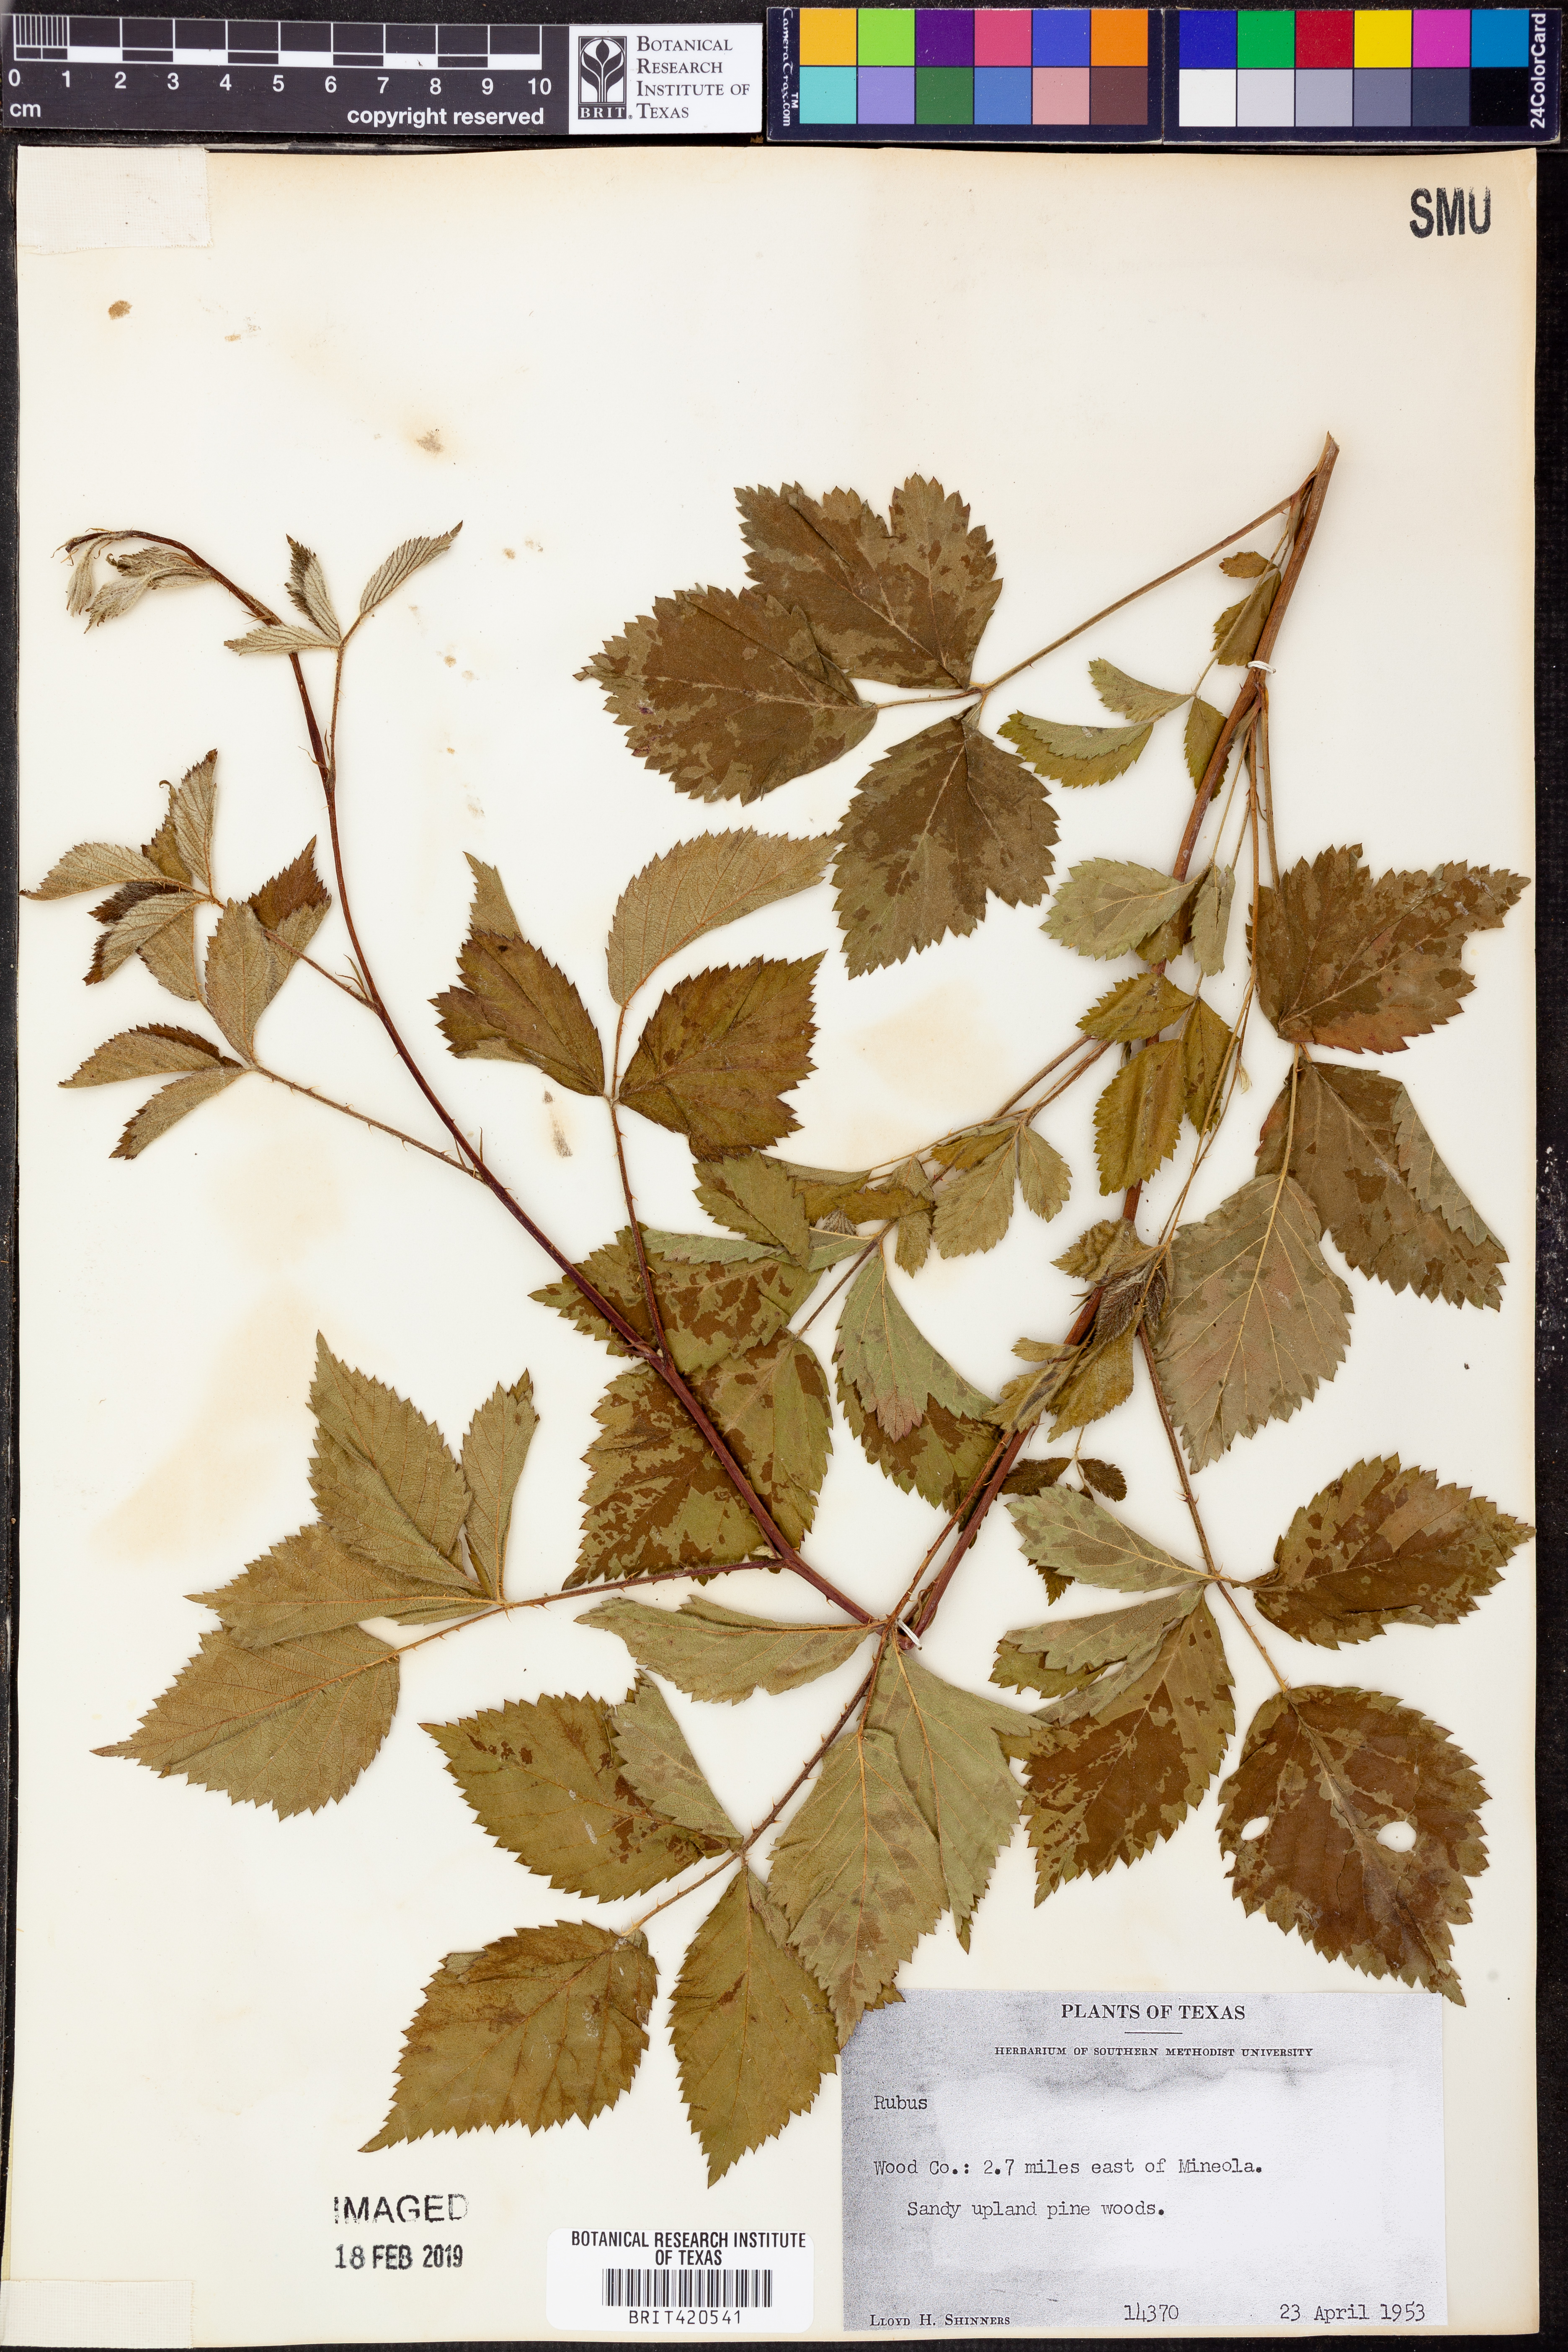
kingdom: Plantae
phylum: Tracheophyta
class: Magnoliopsida
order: Rosales
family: Rosaceae
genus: Rubus
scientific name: Rubus
